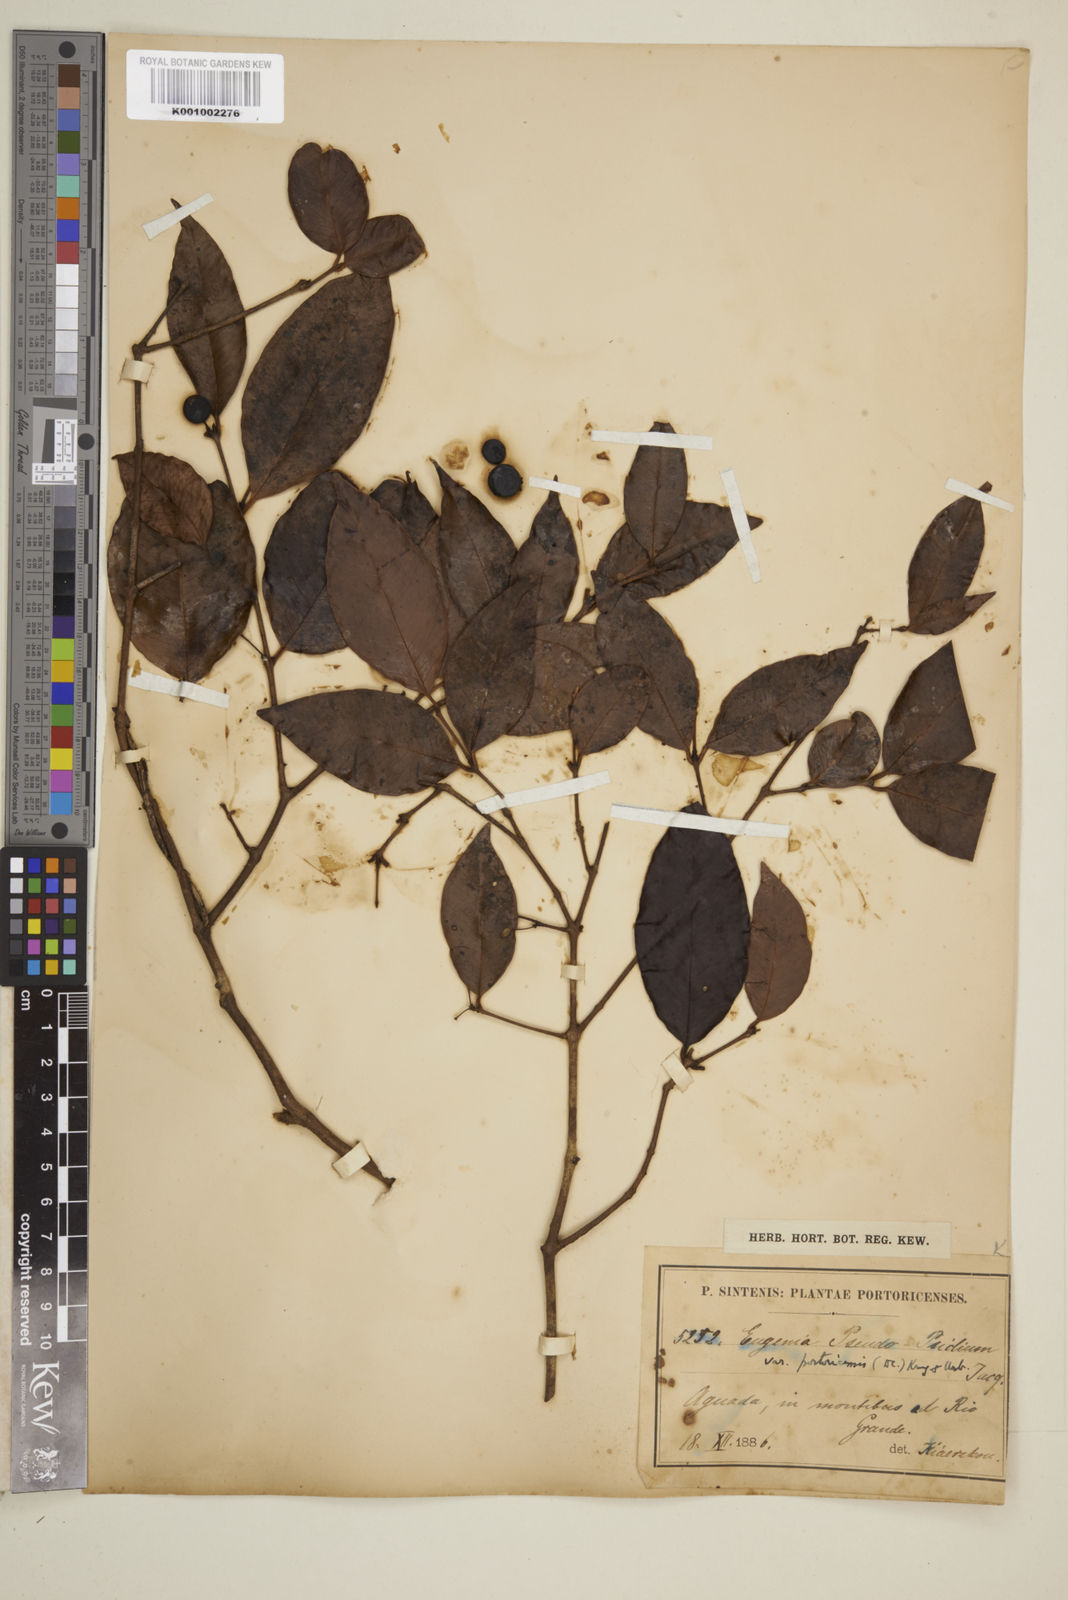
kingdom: Plantae
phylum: Tracheophyta
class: Magnoliopsida
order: Myrtales
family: Myrtaceae
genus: Eugenia
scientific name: Eugenia pseudopsidium
